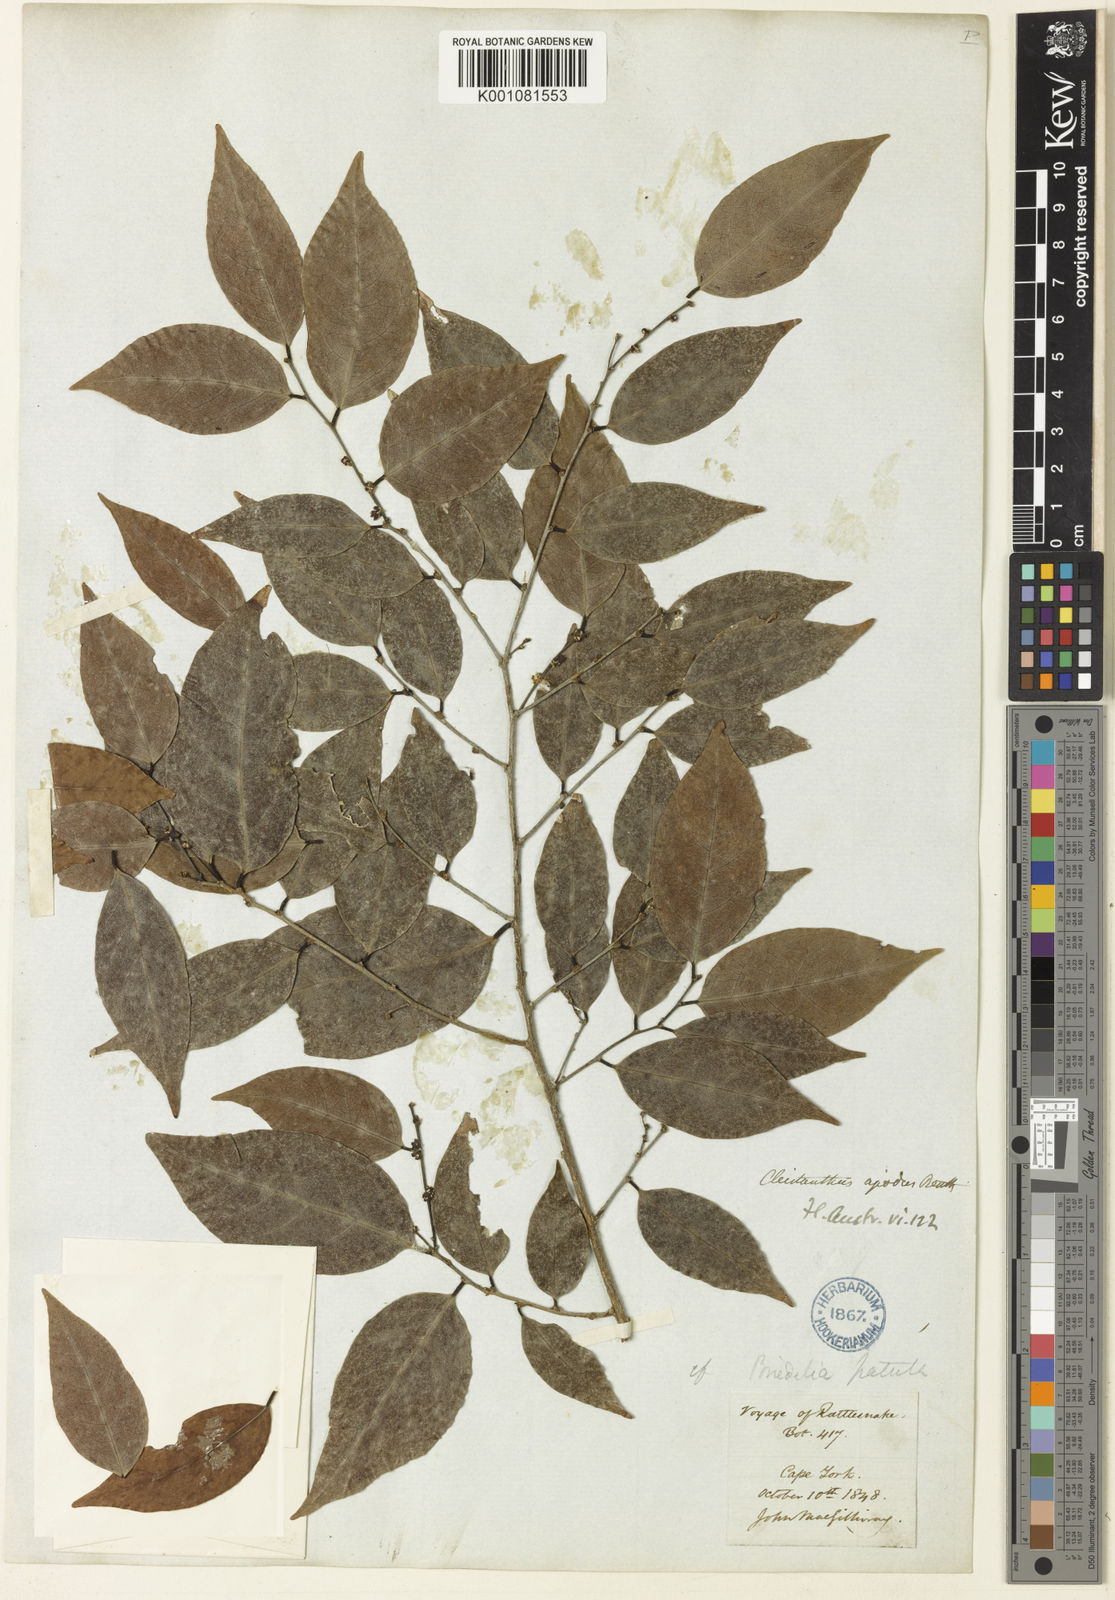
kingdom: Plantae
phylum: Tracheophyta
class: Magnoliopsida
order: Malpighiales
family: Phyllanthaceae
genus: Cleistanthus
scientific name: Cleistanthus apodus
